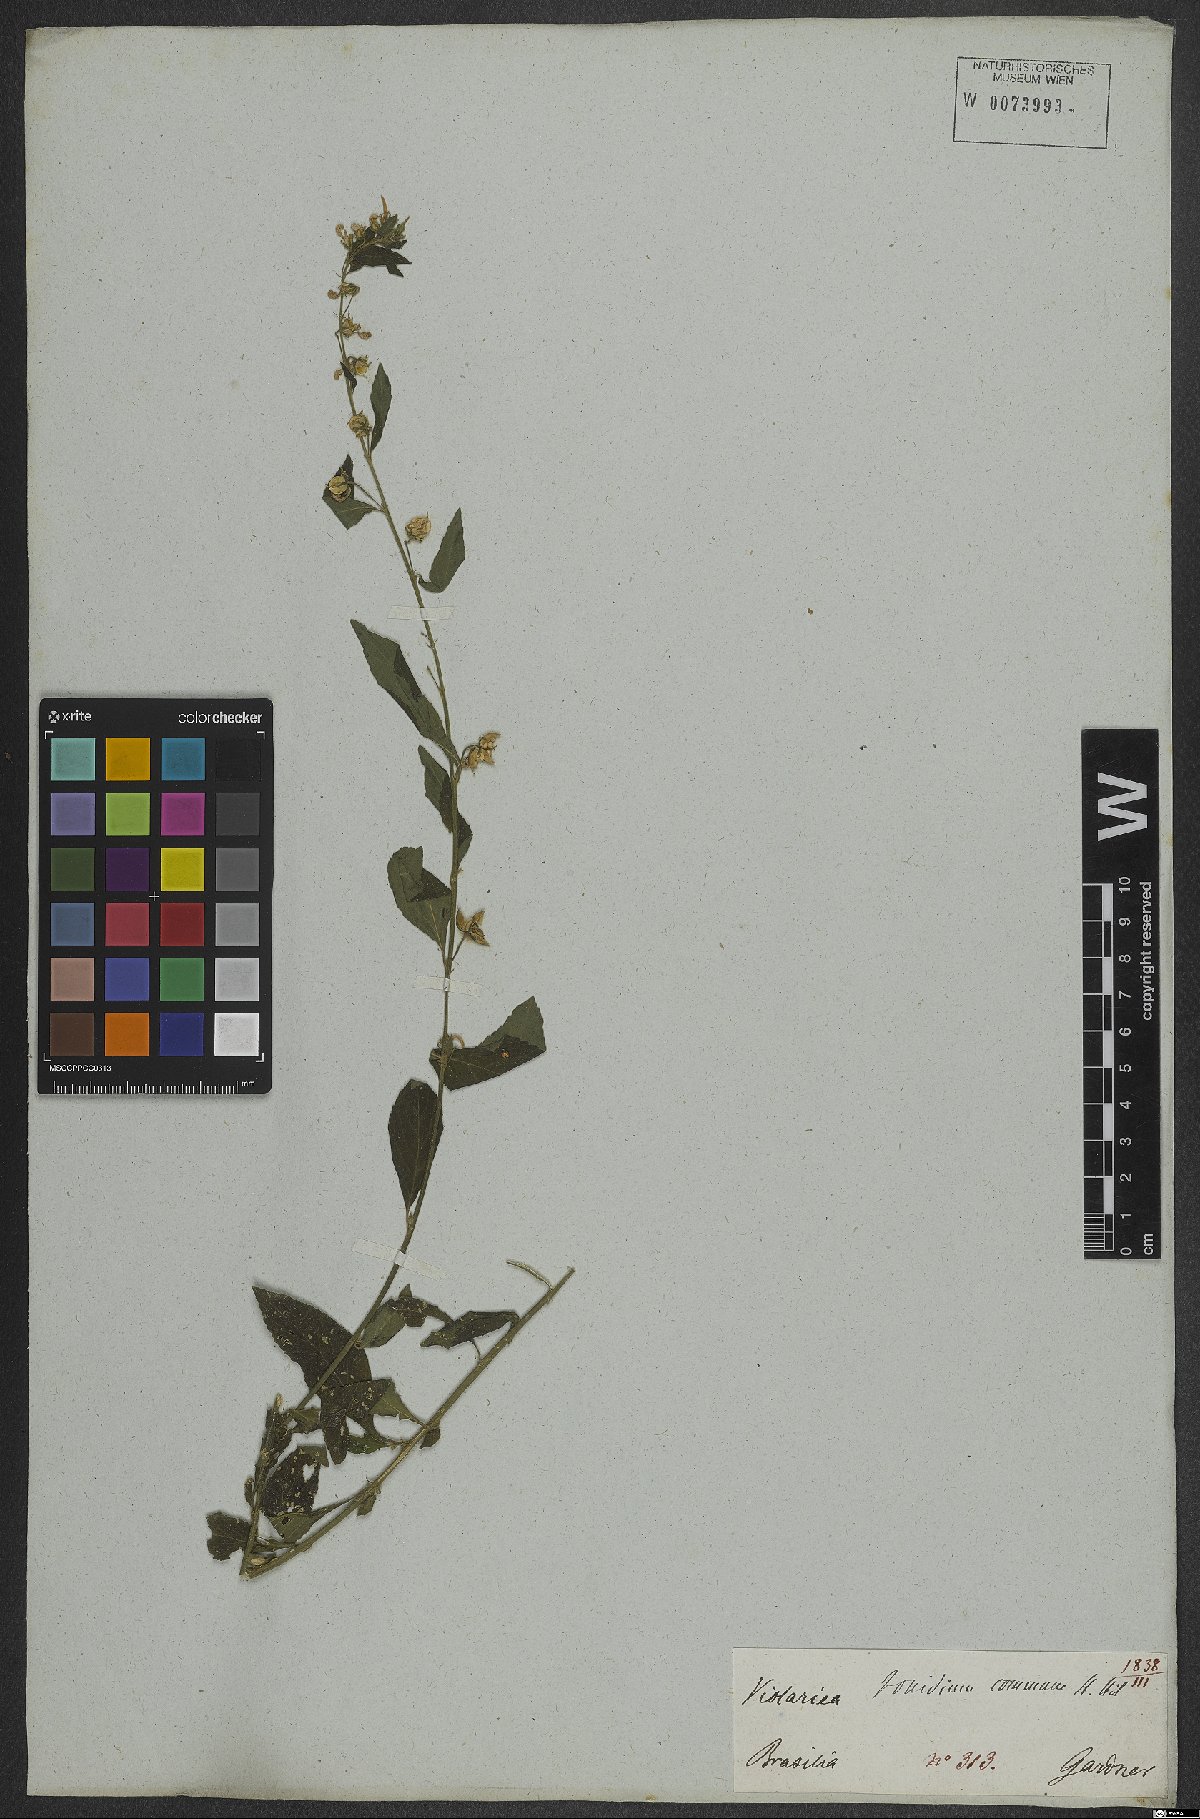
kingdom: Plantae
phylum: Tracheophyta
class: Magnoliopsida
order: Malpighiales
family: Violaceae
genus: Pombalia
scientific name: Pombalia communis
